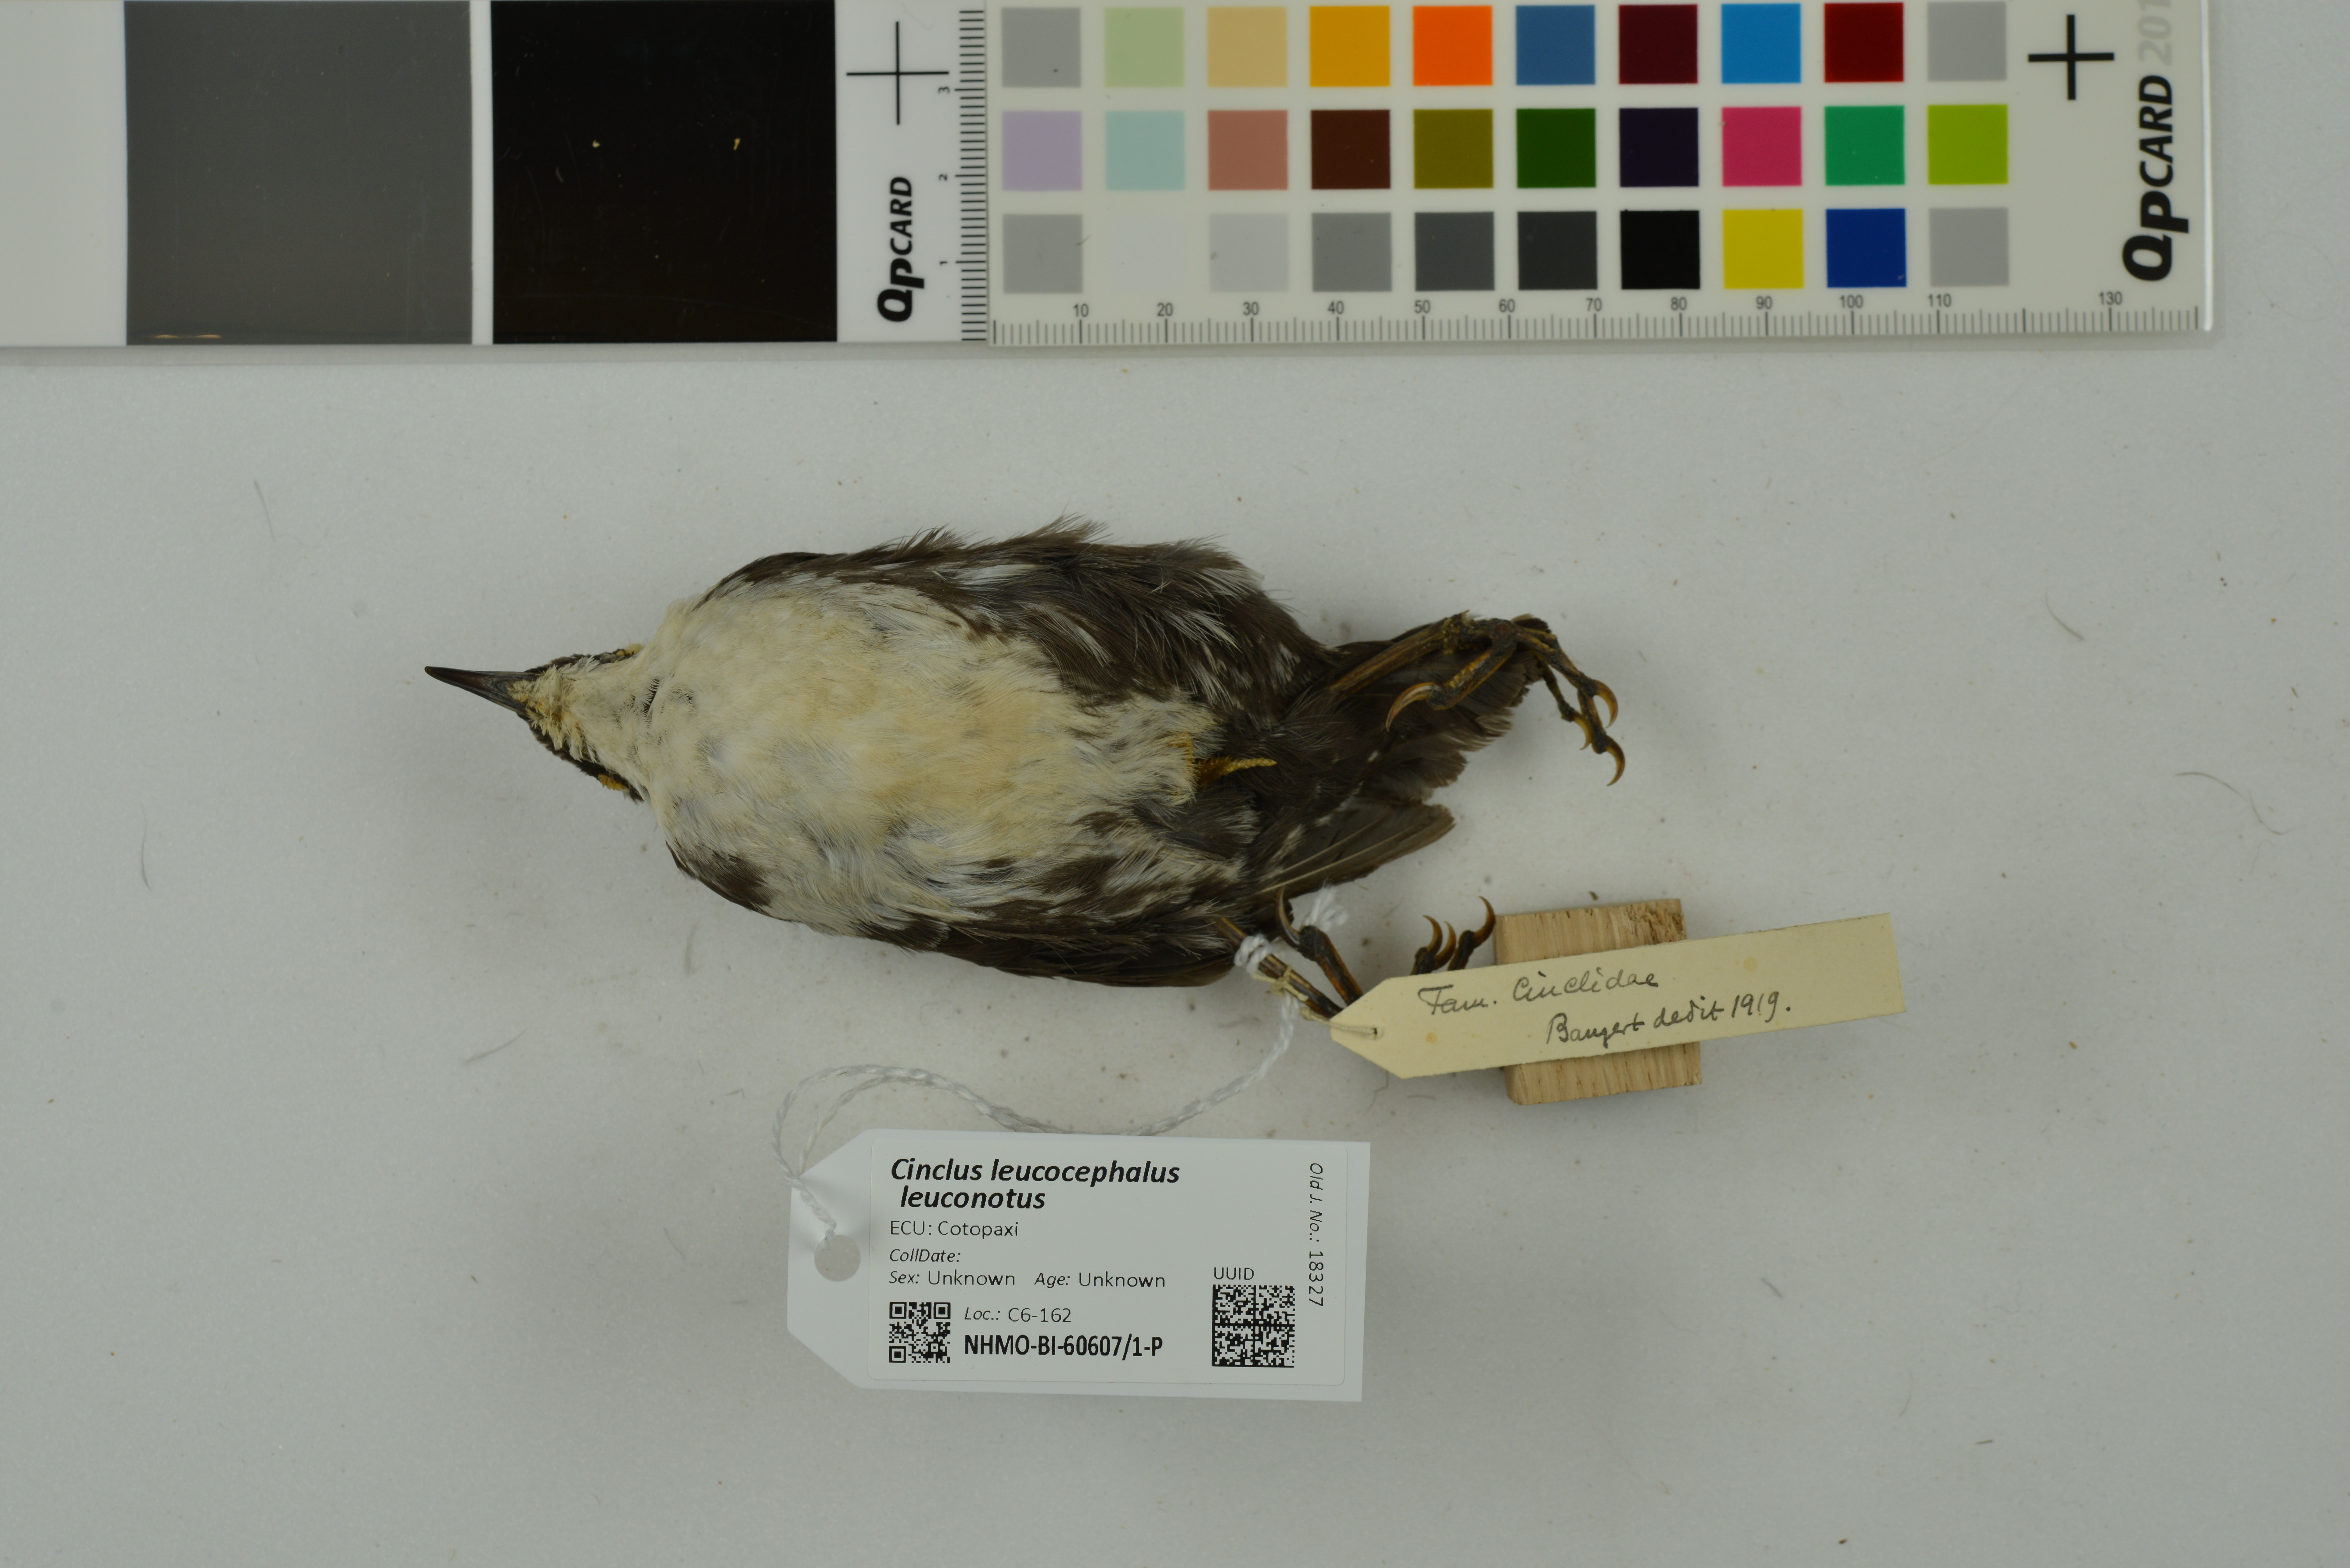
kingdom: Animalia
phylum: Chordata
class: Aves
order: Passeriformes
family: Cinclidae
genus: Cinclus
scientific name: Cinclus leucocephalus
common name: White-capped dipper
